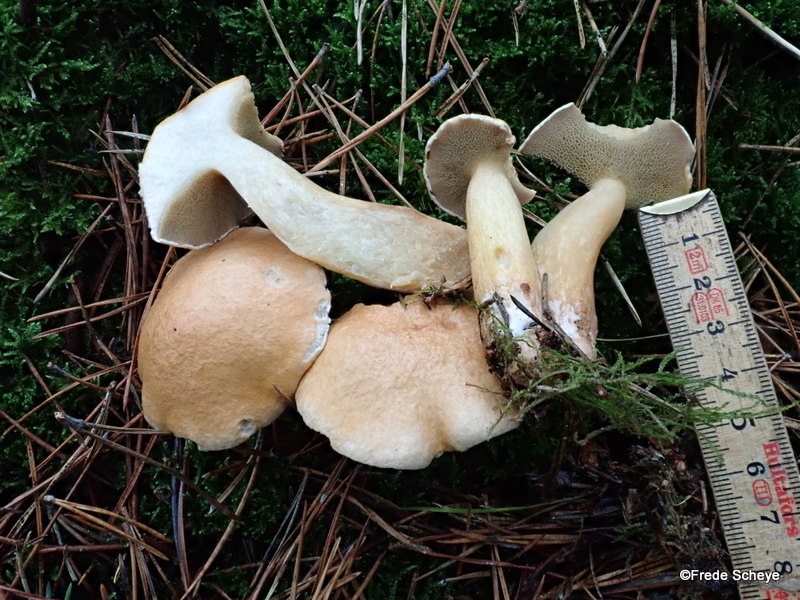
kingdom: Fungi
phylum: Basidiomycota
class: Agaricomycetes
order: Boletales
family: Suillaceae
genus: Suillus
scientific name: Suillus bovinus
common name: grovporet slimrørhat
